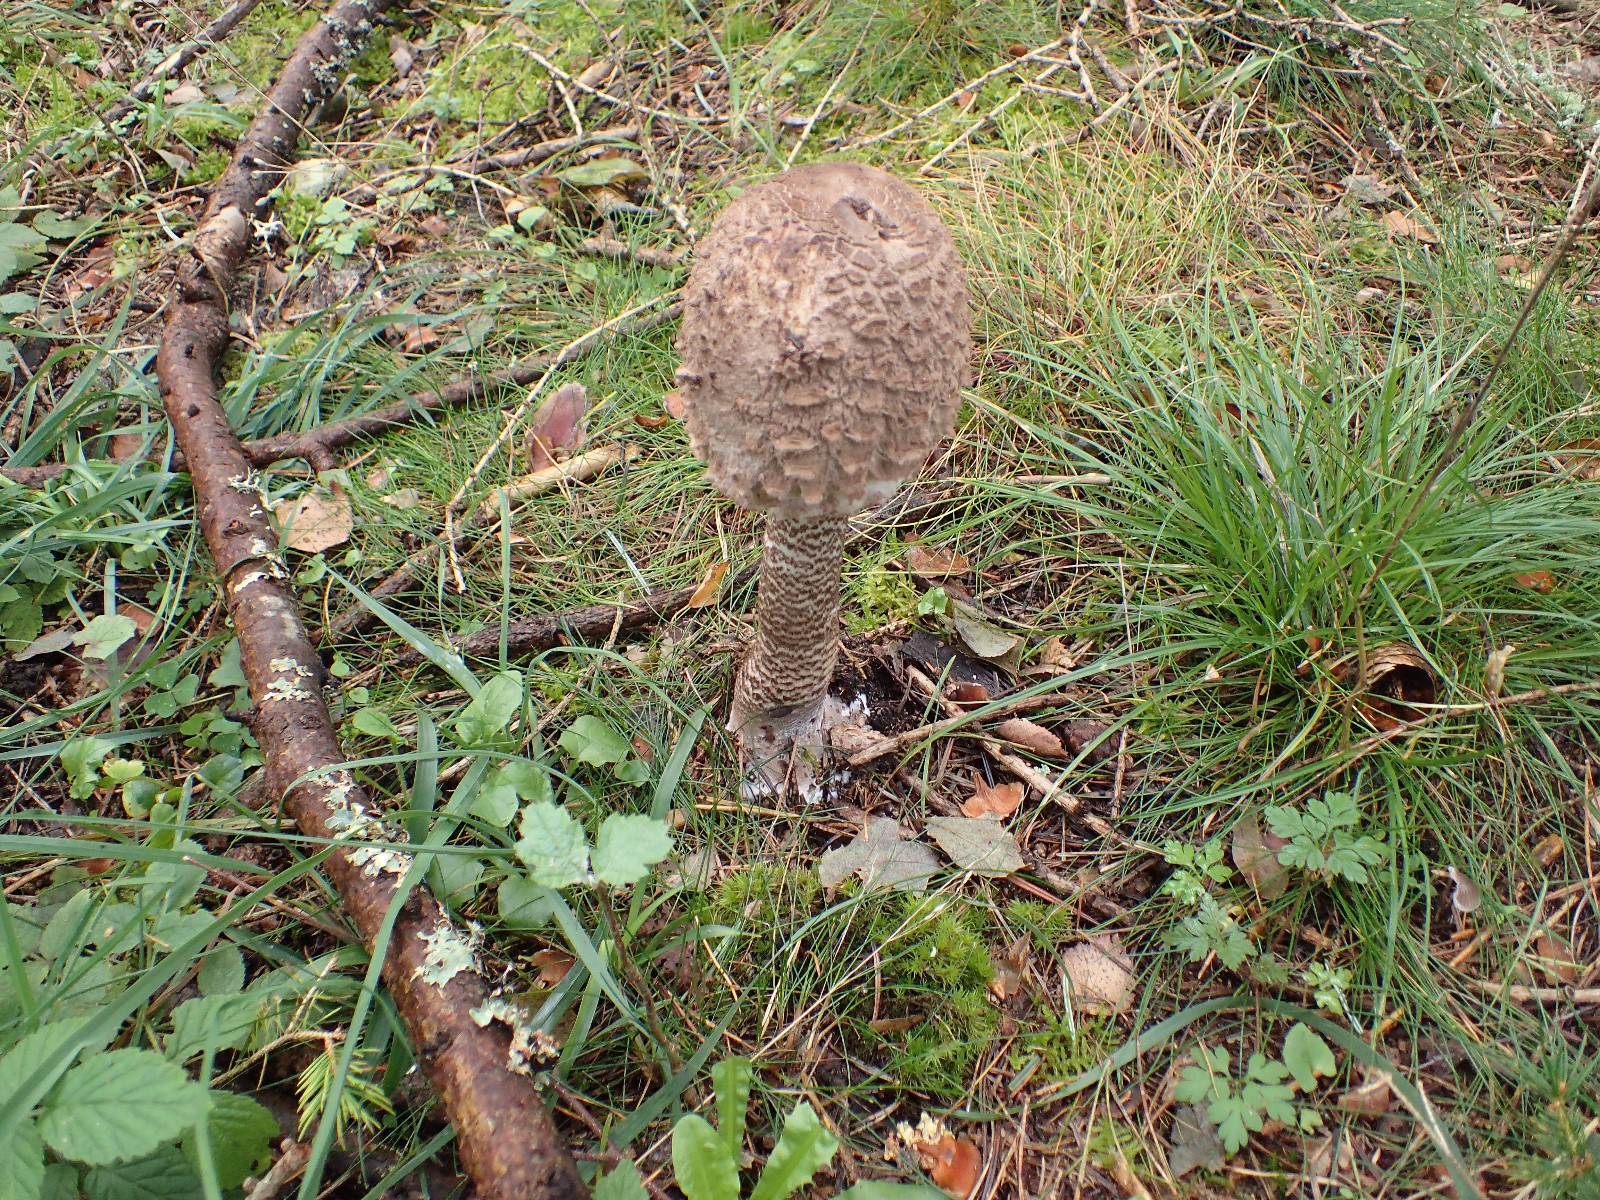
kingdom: Fungi
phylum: Basidiomycota
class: Agaricomycetes
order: Agaricales
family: Agaricaceae
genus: Macrolepiota
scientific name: Macrolepiota procera
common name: stor kæmpeparasolhat
